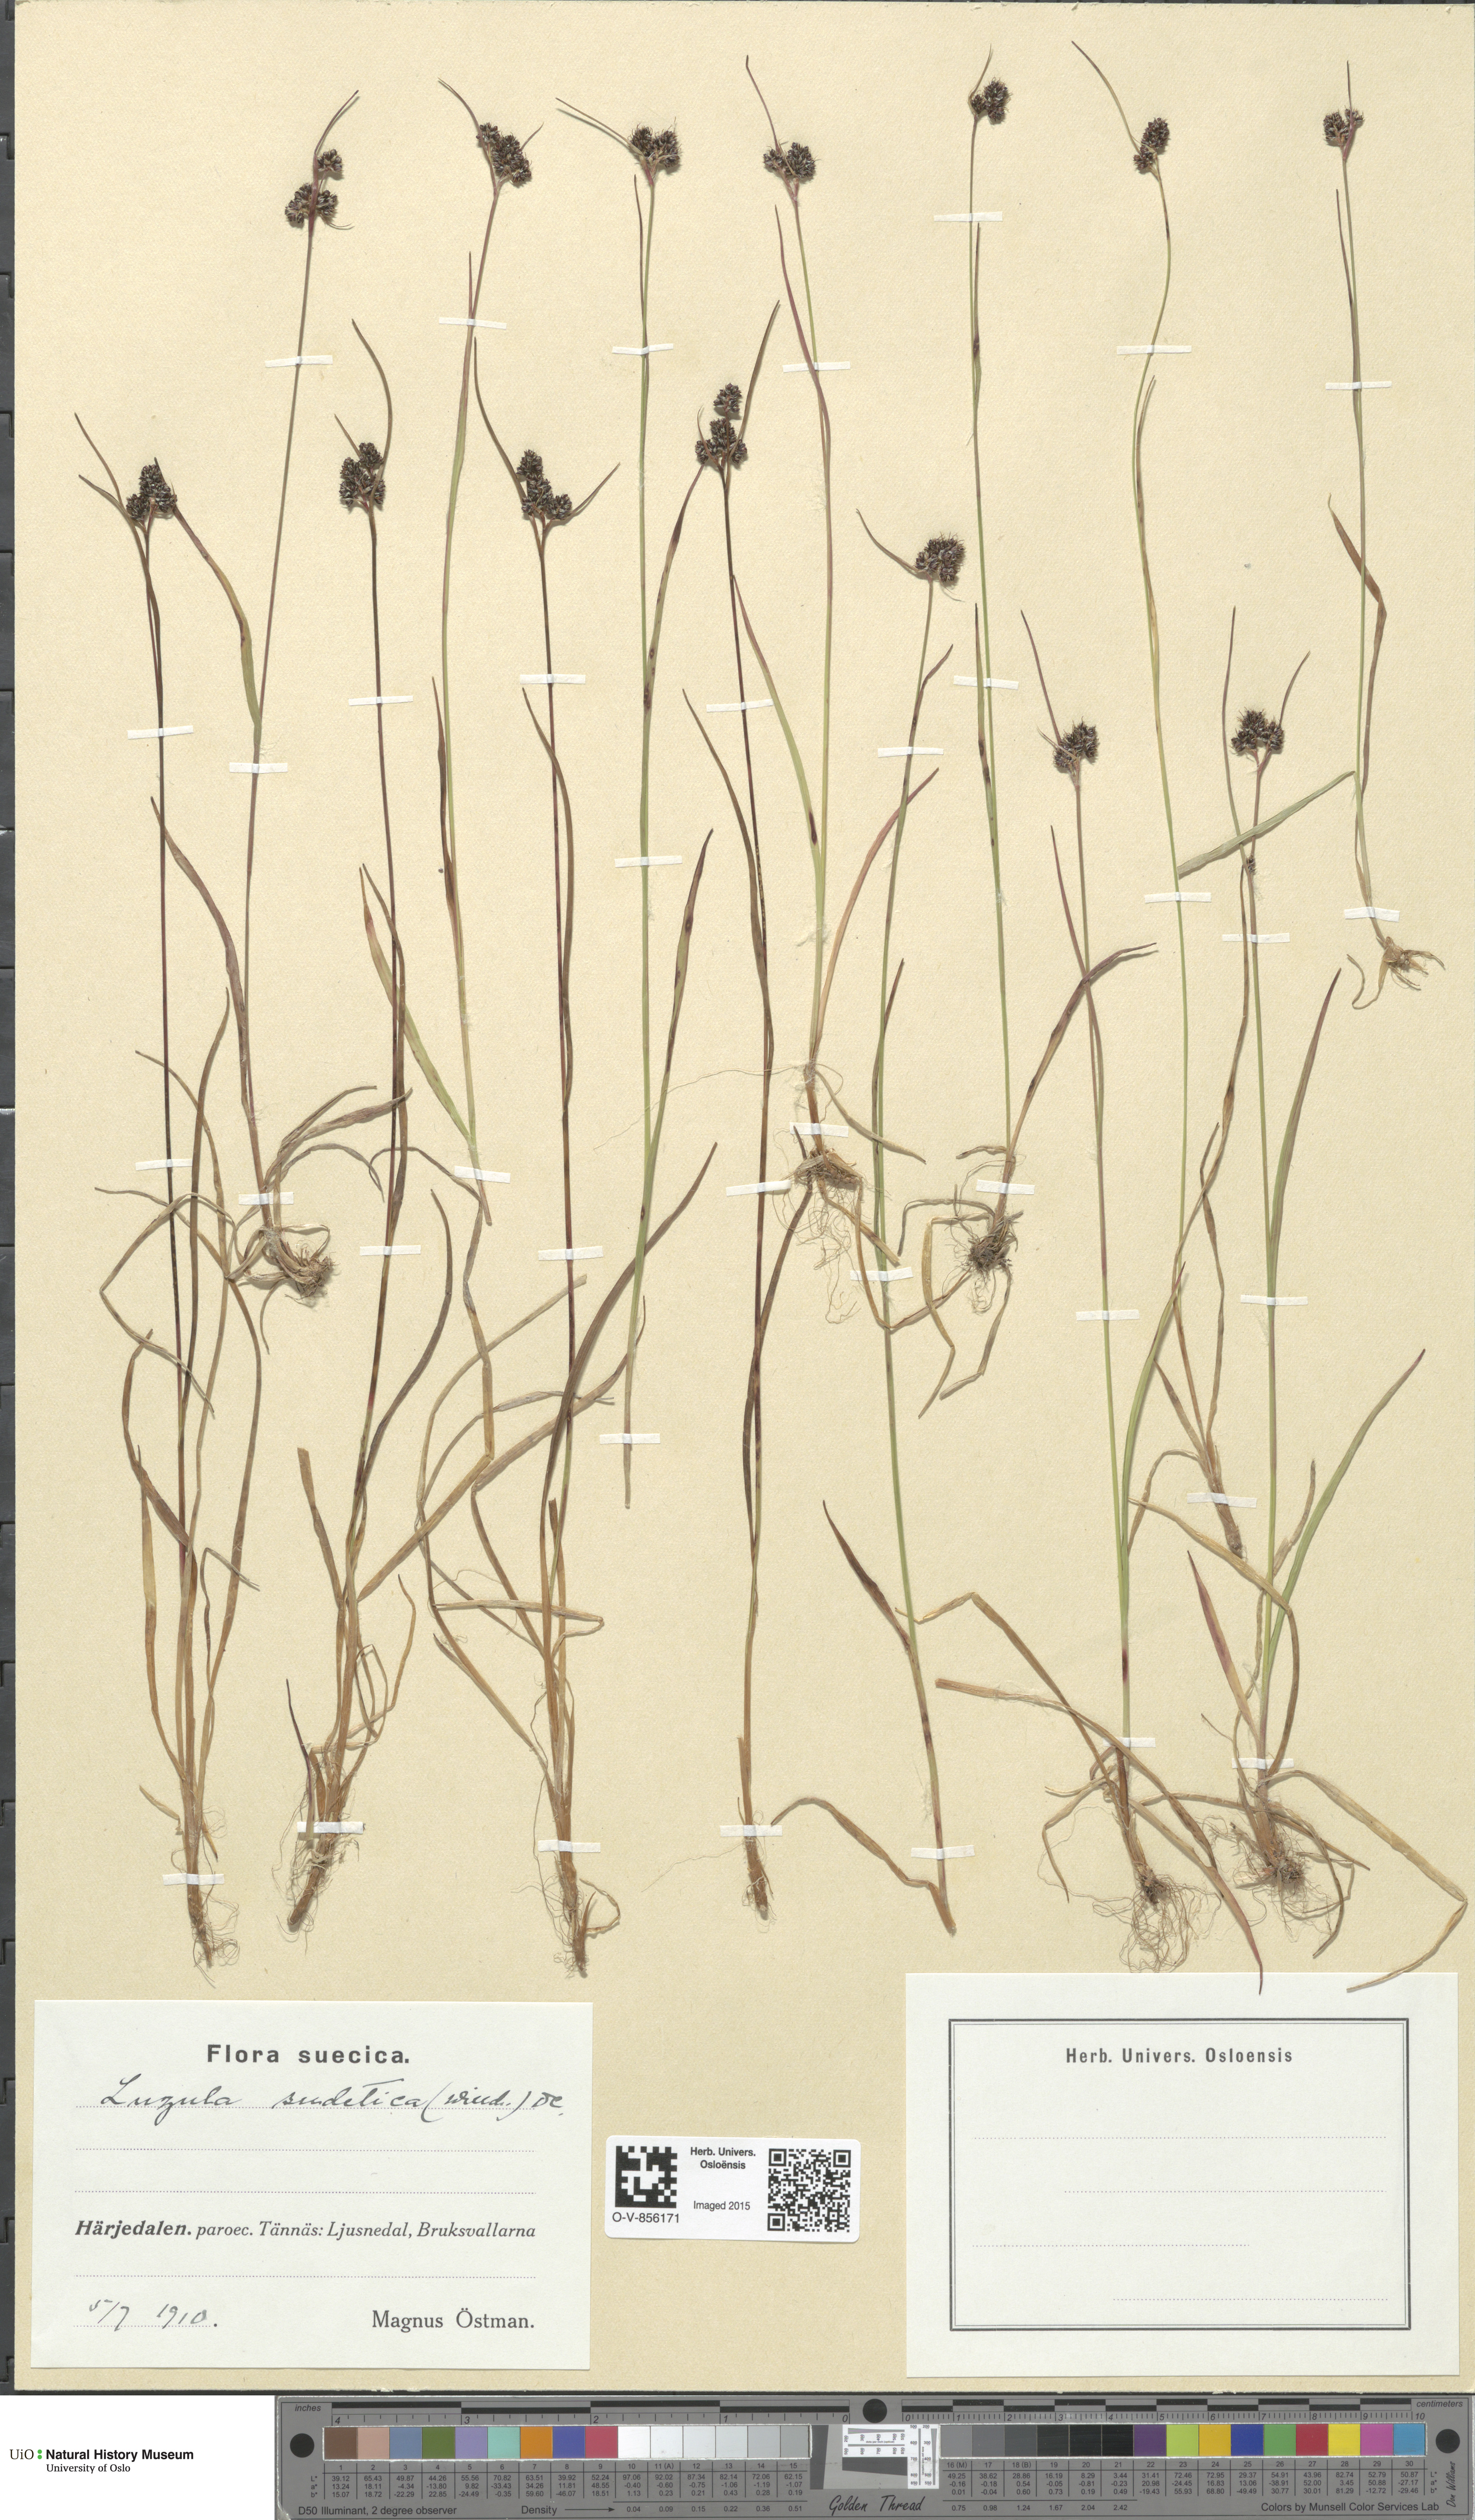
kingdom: Plantae
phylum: Tracheophyta
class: Liliopsida
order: Poales
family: Juncaceae
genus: Luzula
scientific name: Luzula sudetica
